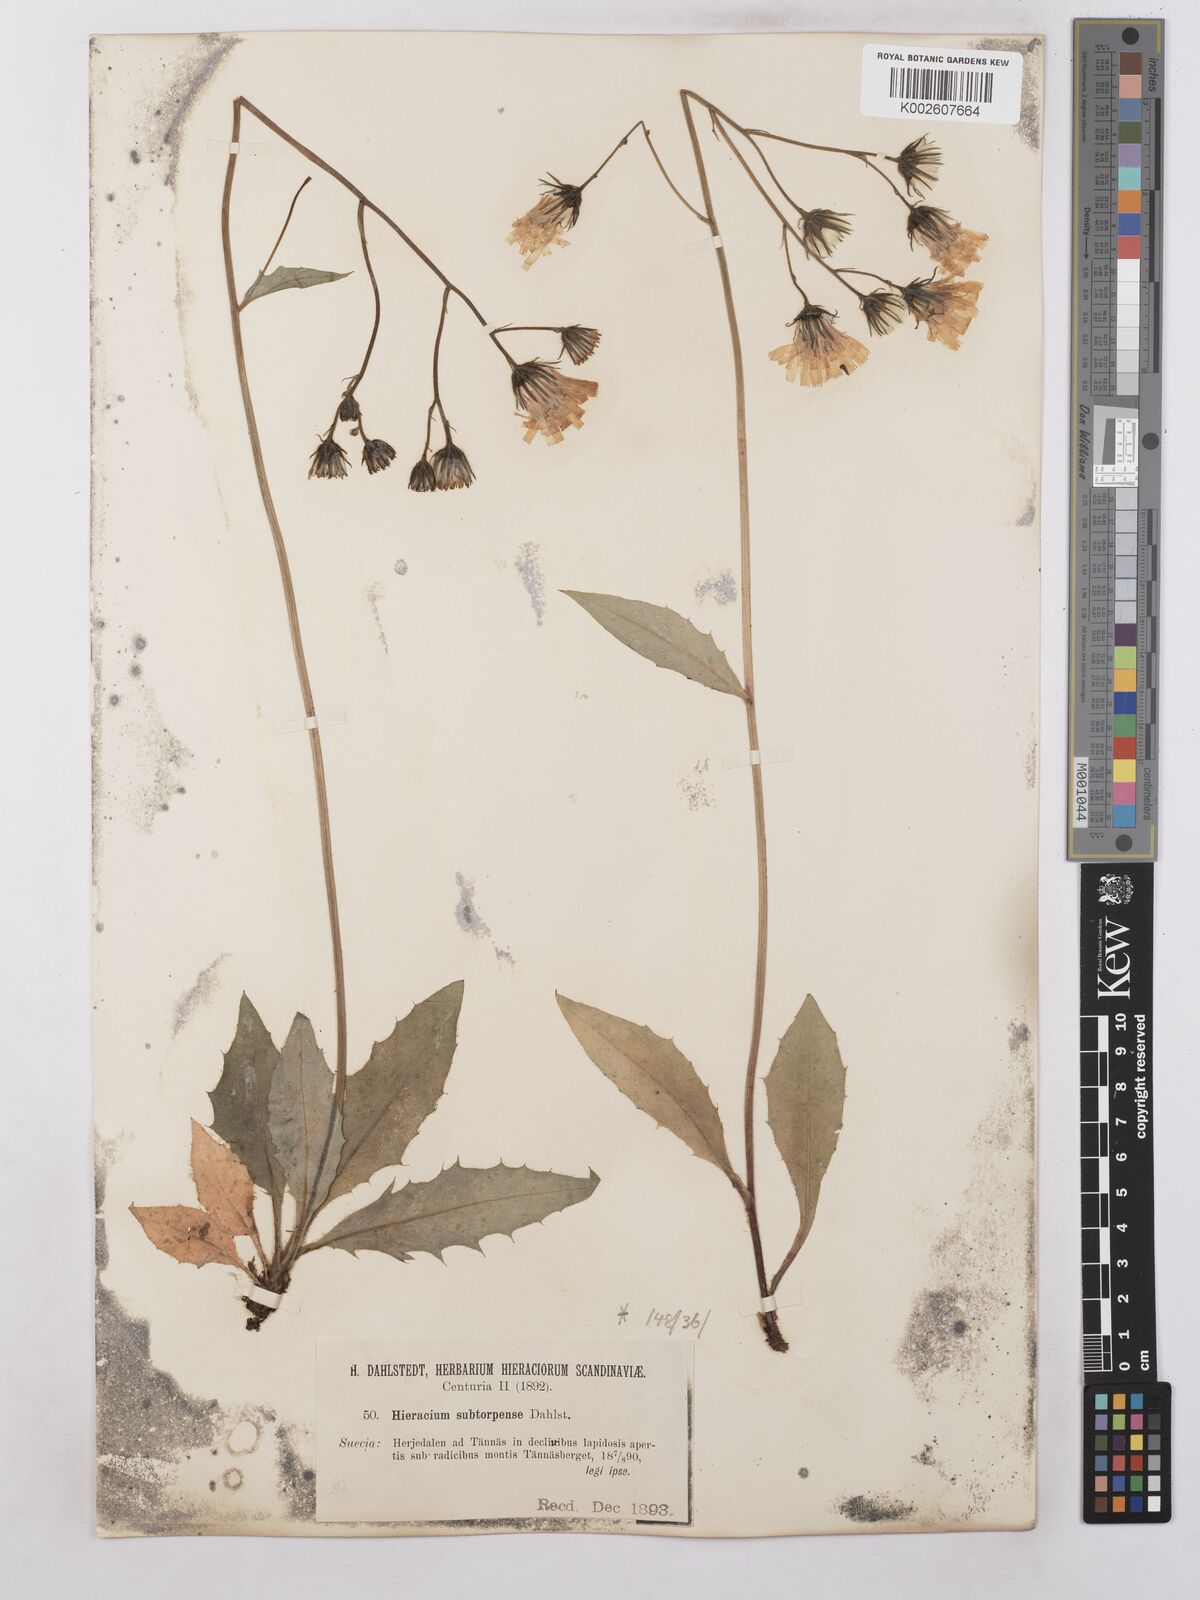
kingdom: Plantae
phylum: Tracheophyta
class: Magnoliopsida
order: Asterales
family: Asteraceae
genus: Hieracium
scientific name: Hieracium subramosum
